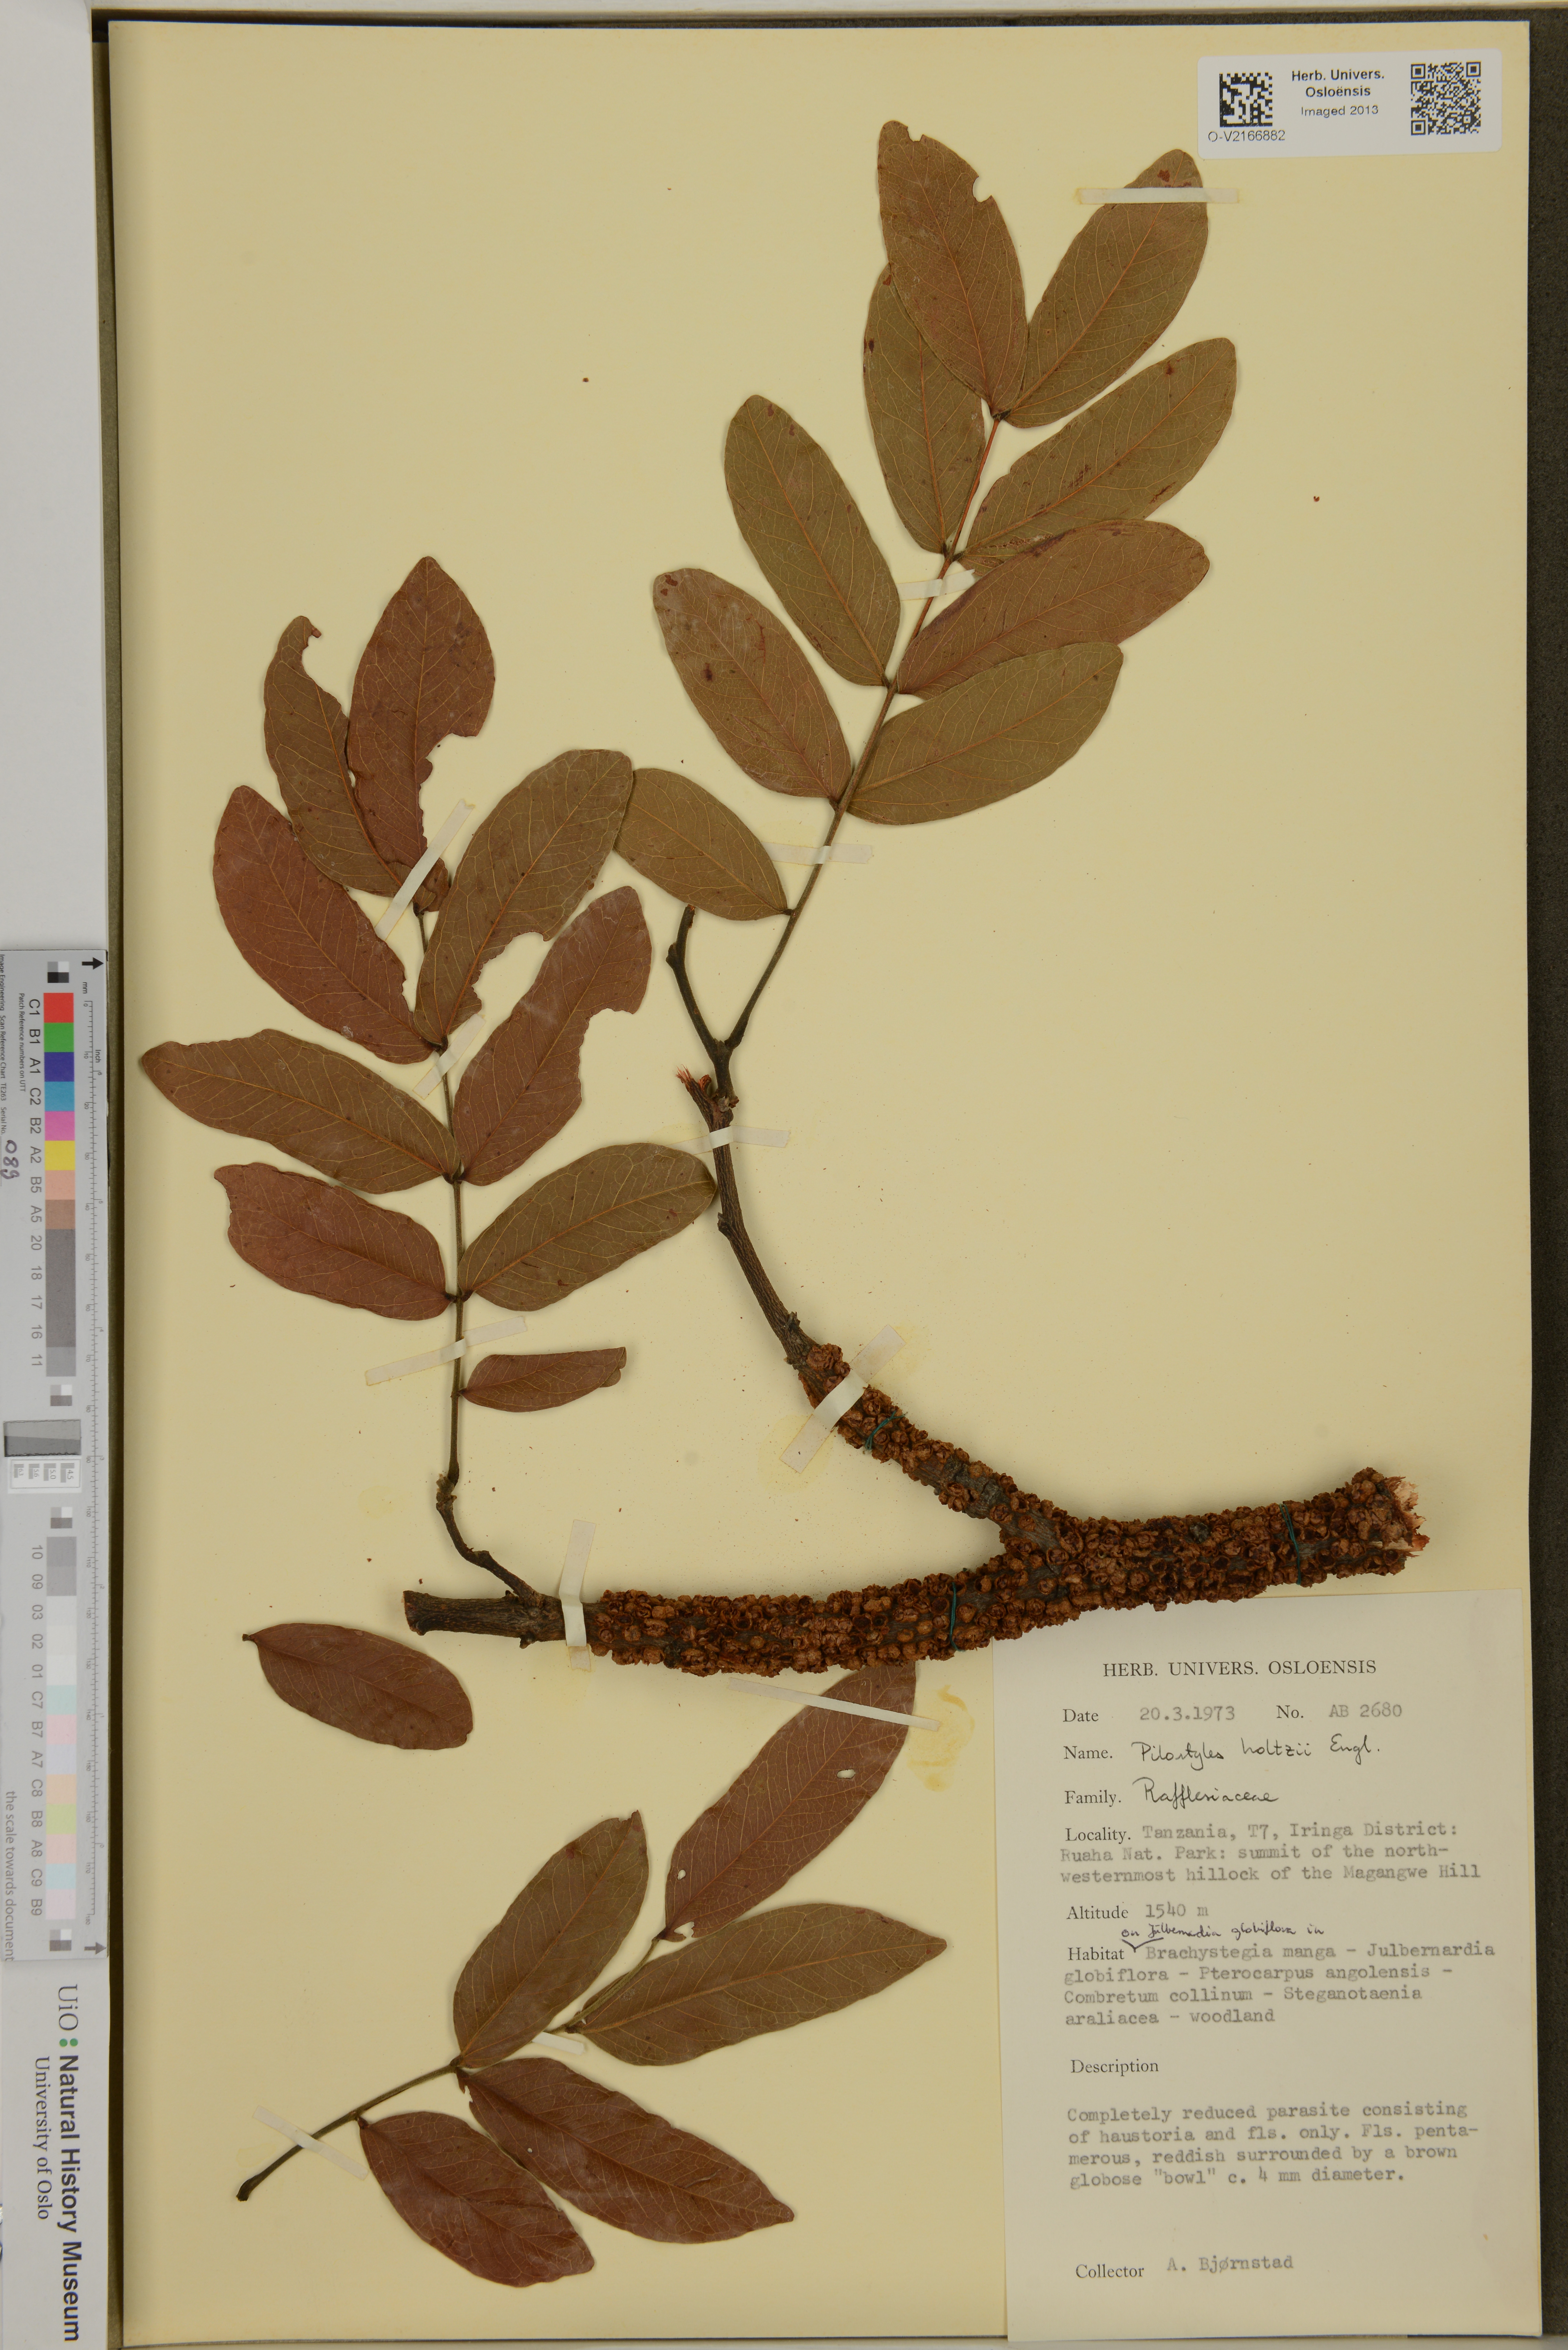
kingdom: Plantae
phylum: Tracheophyta
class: Magnoliopsida
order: Cucurbitales
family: Apodanthaceae
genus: Pilostyles
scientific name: Pilostyles aethiopica
